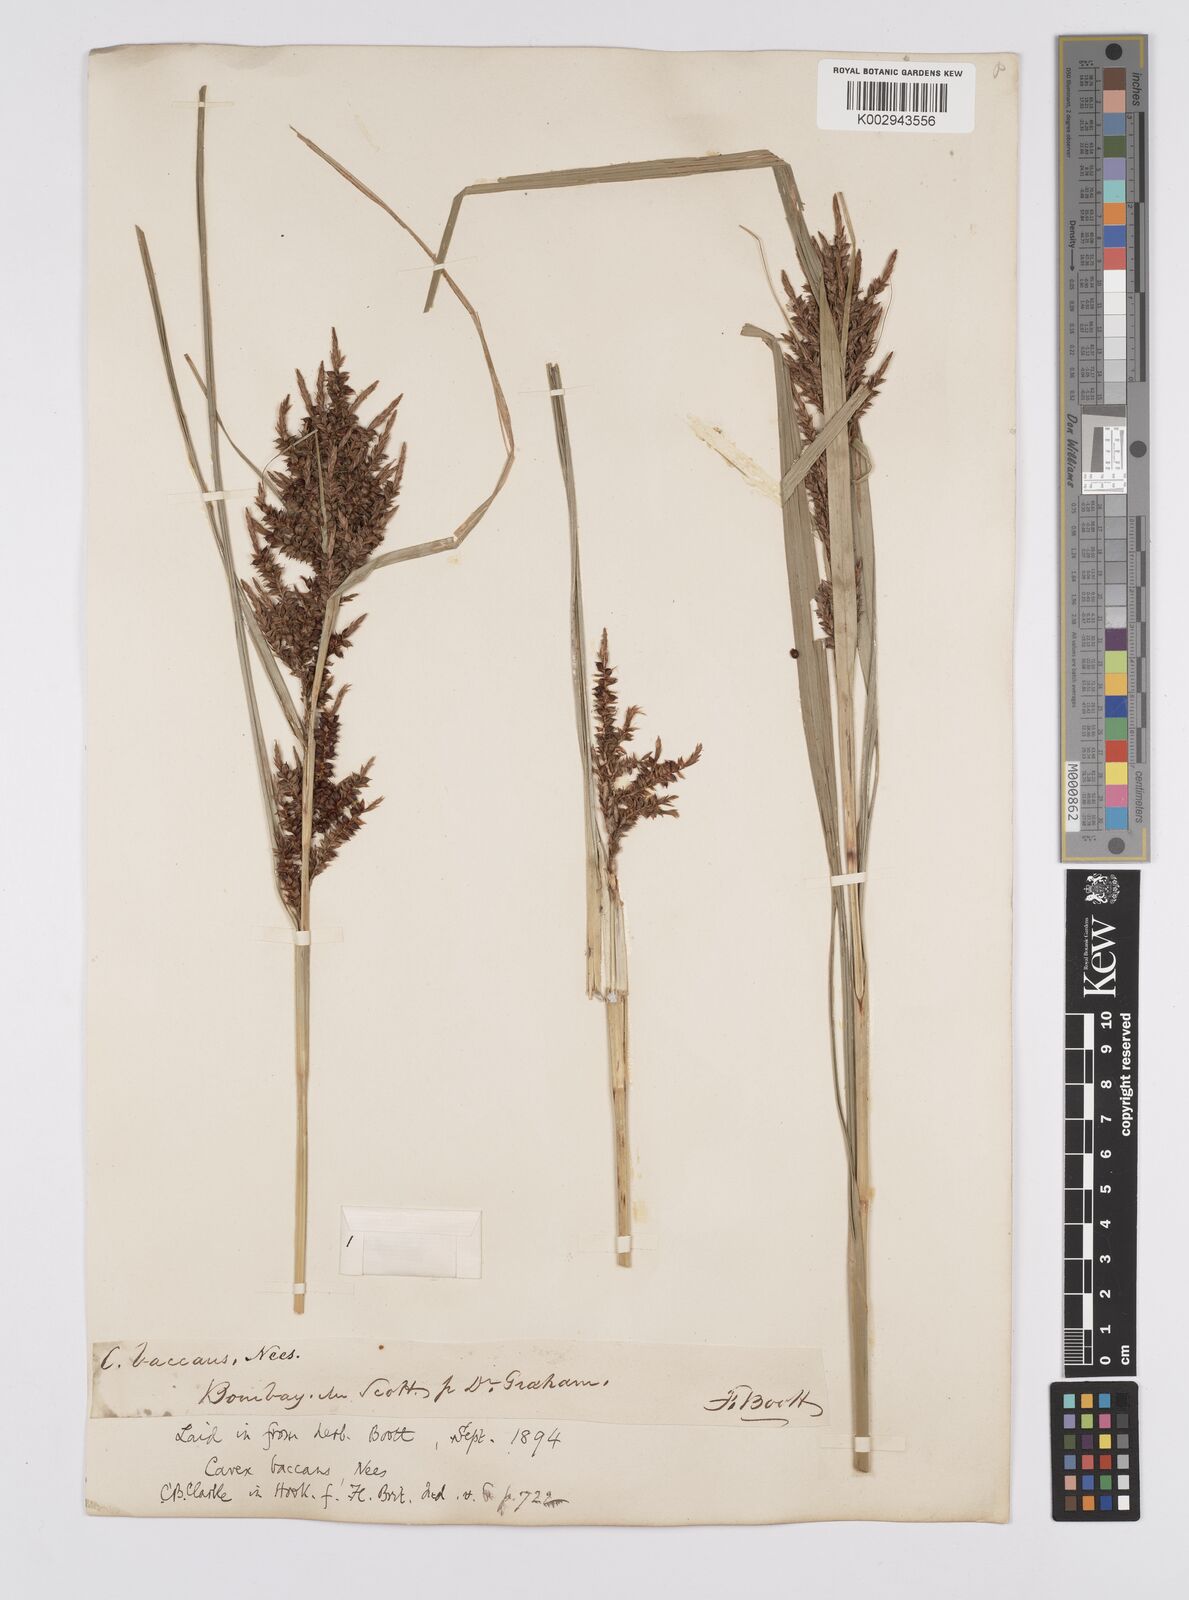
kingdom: Plantae
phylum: Tracheophyta
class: Liliopsida
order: Poales
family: Cyperaceae
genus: Carex
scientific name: Carex baccans
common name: Crimson seeded sedge
